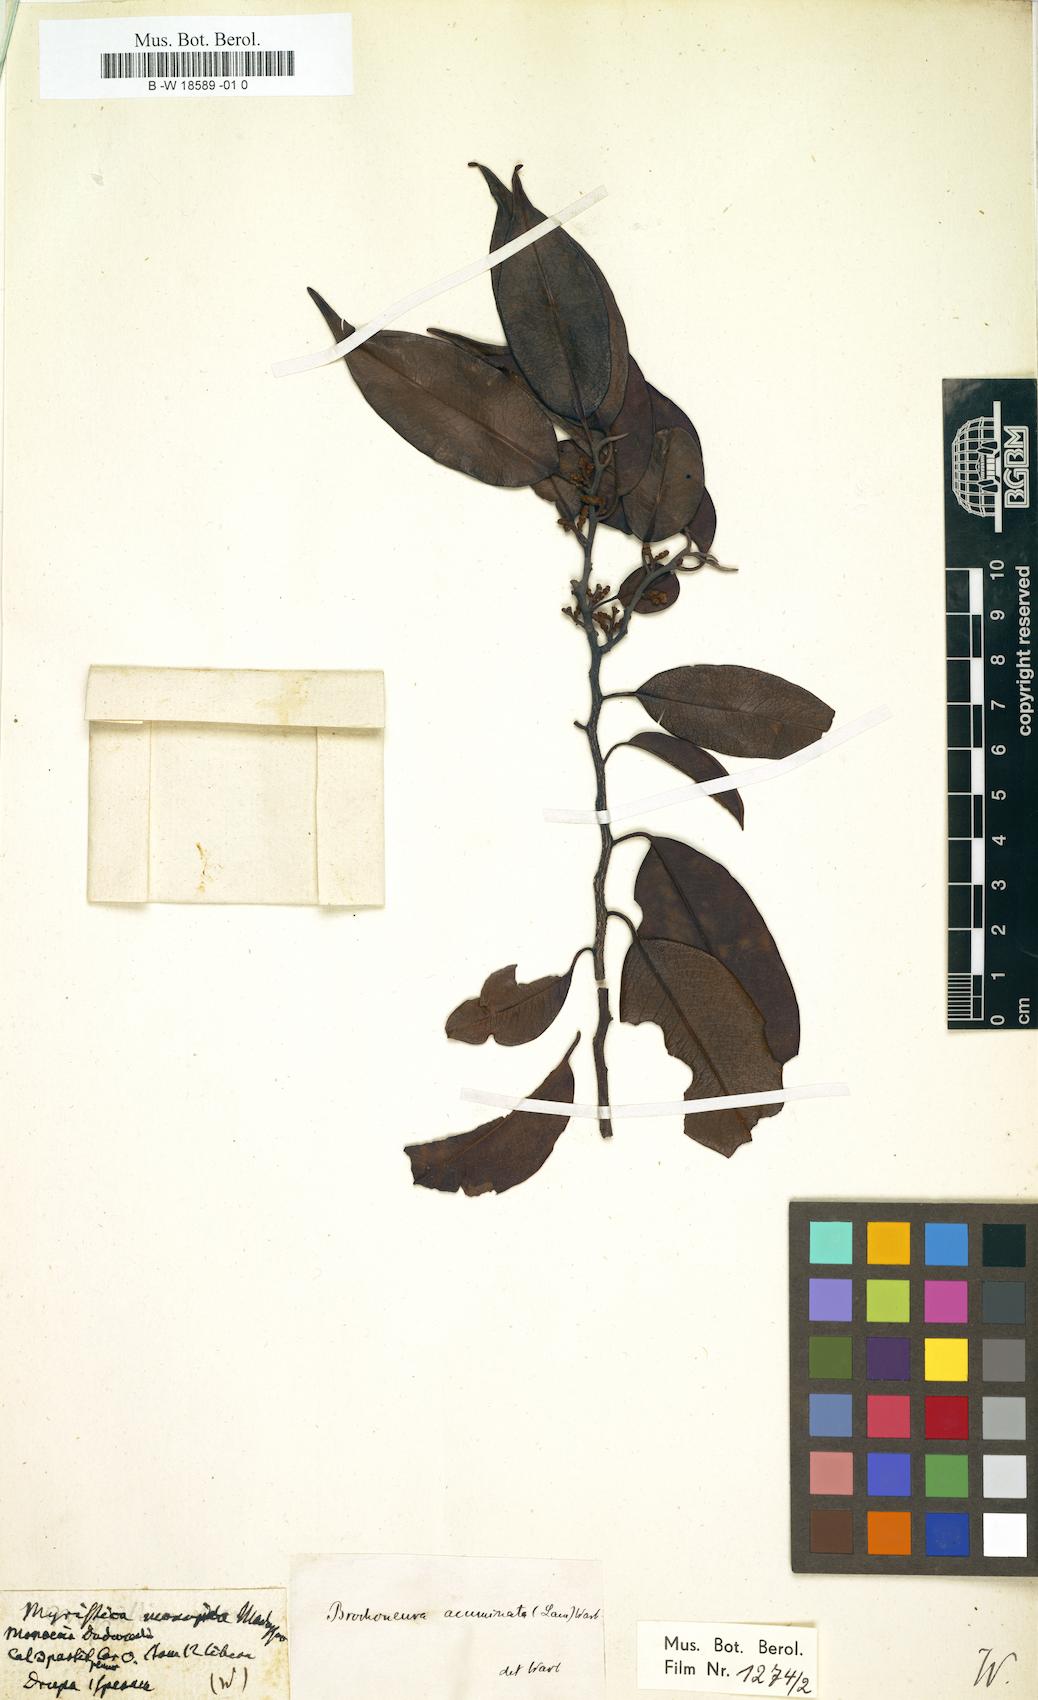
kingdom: Plantae
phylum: Tracheophyta
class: Magnoliopsida
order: Magnoliales
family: Myristicaceae
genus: Myristica
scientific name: Myristica
